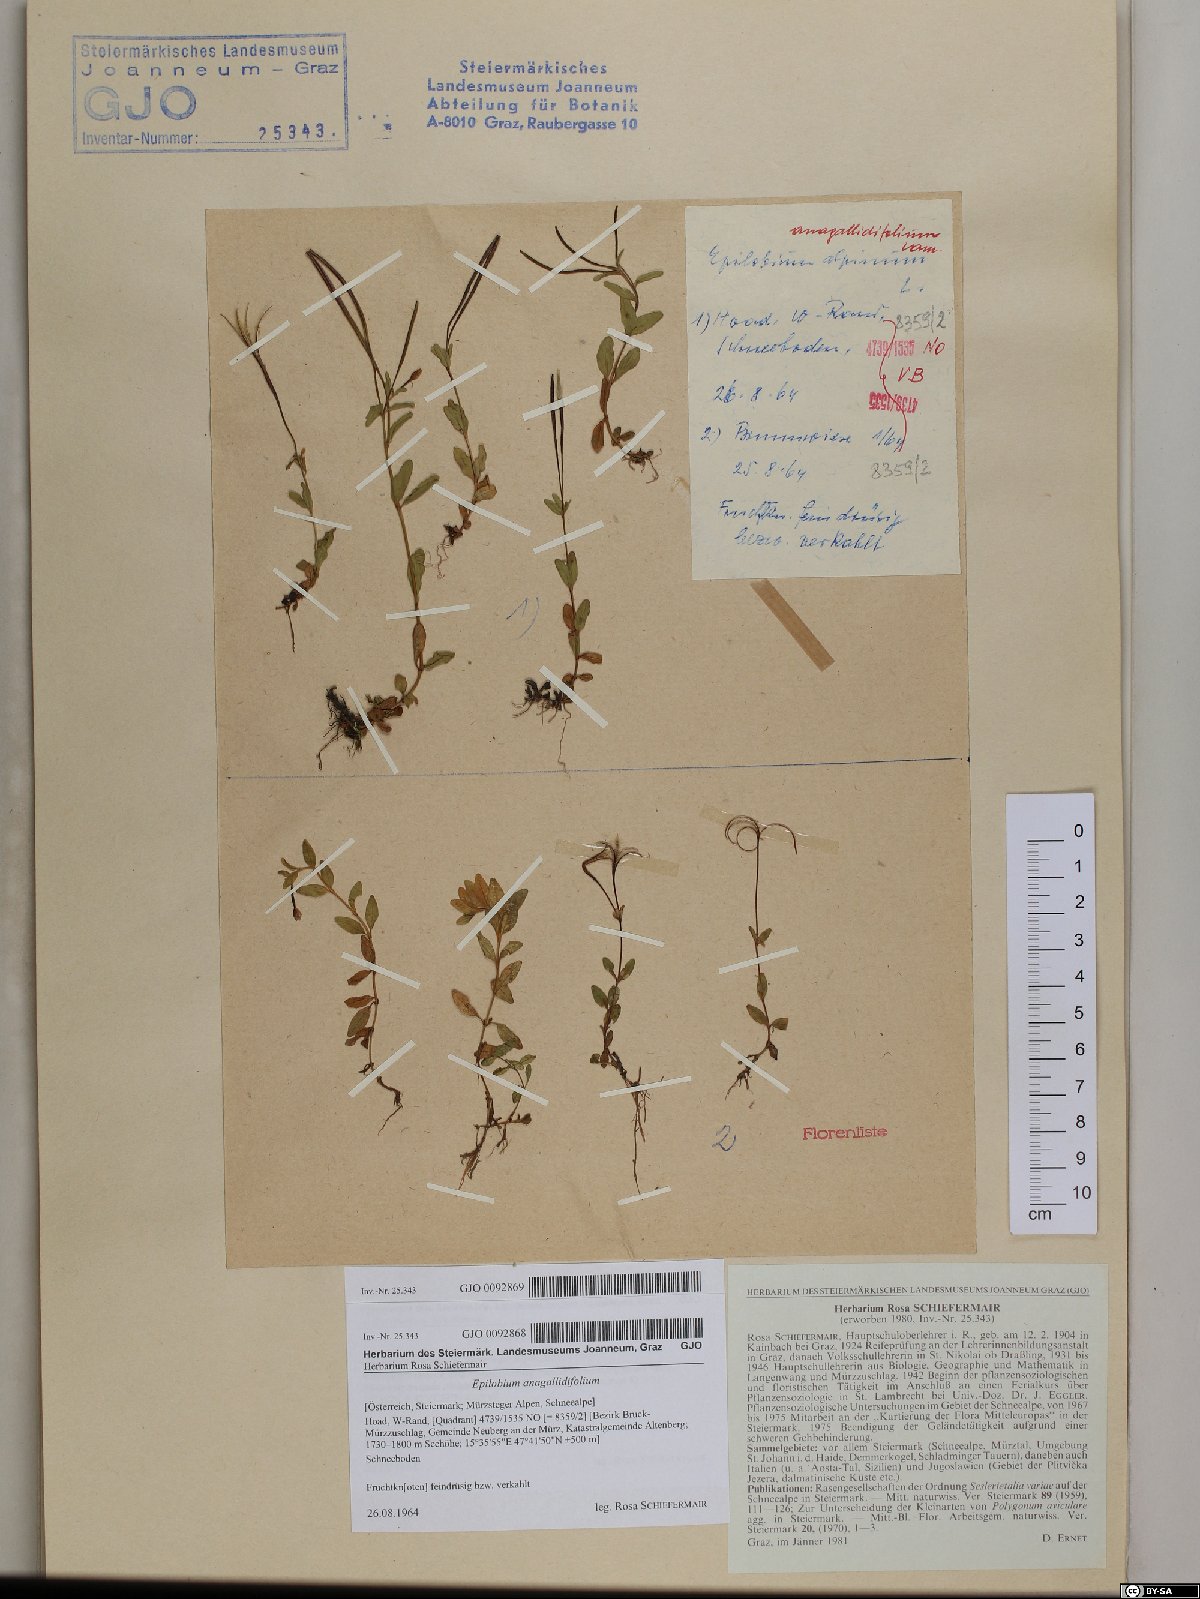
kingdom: Plantae
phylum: Tracheophyta
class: Magnoliopsida
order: Myrtales
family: Onagraceae
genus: Epilobium
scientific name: Epilobium anagallidifolium
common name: Alpine willowherb
